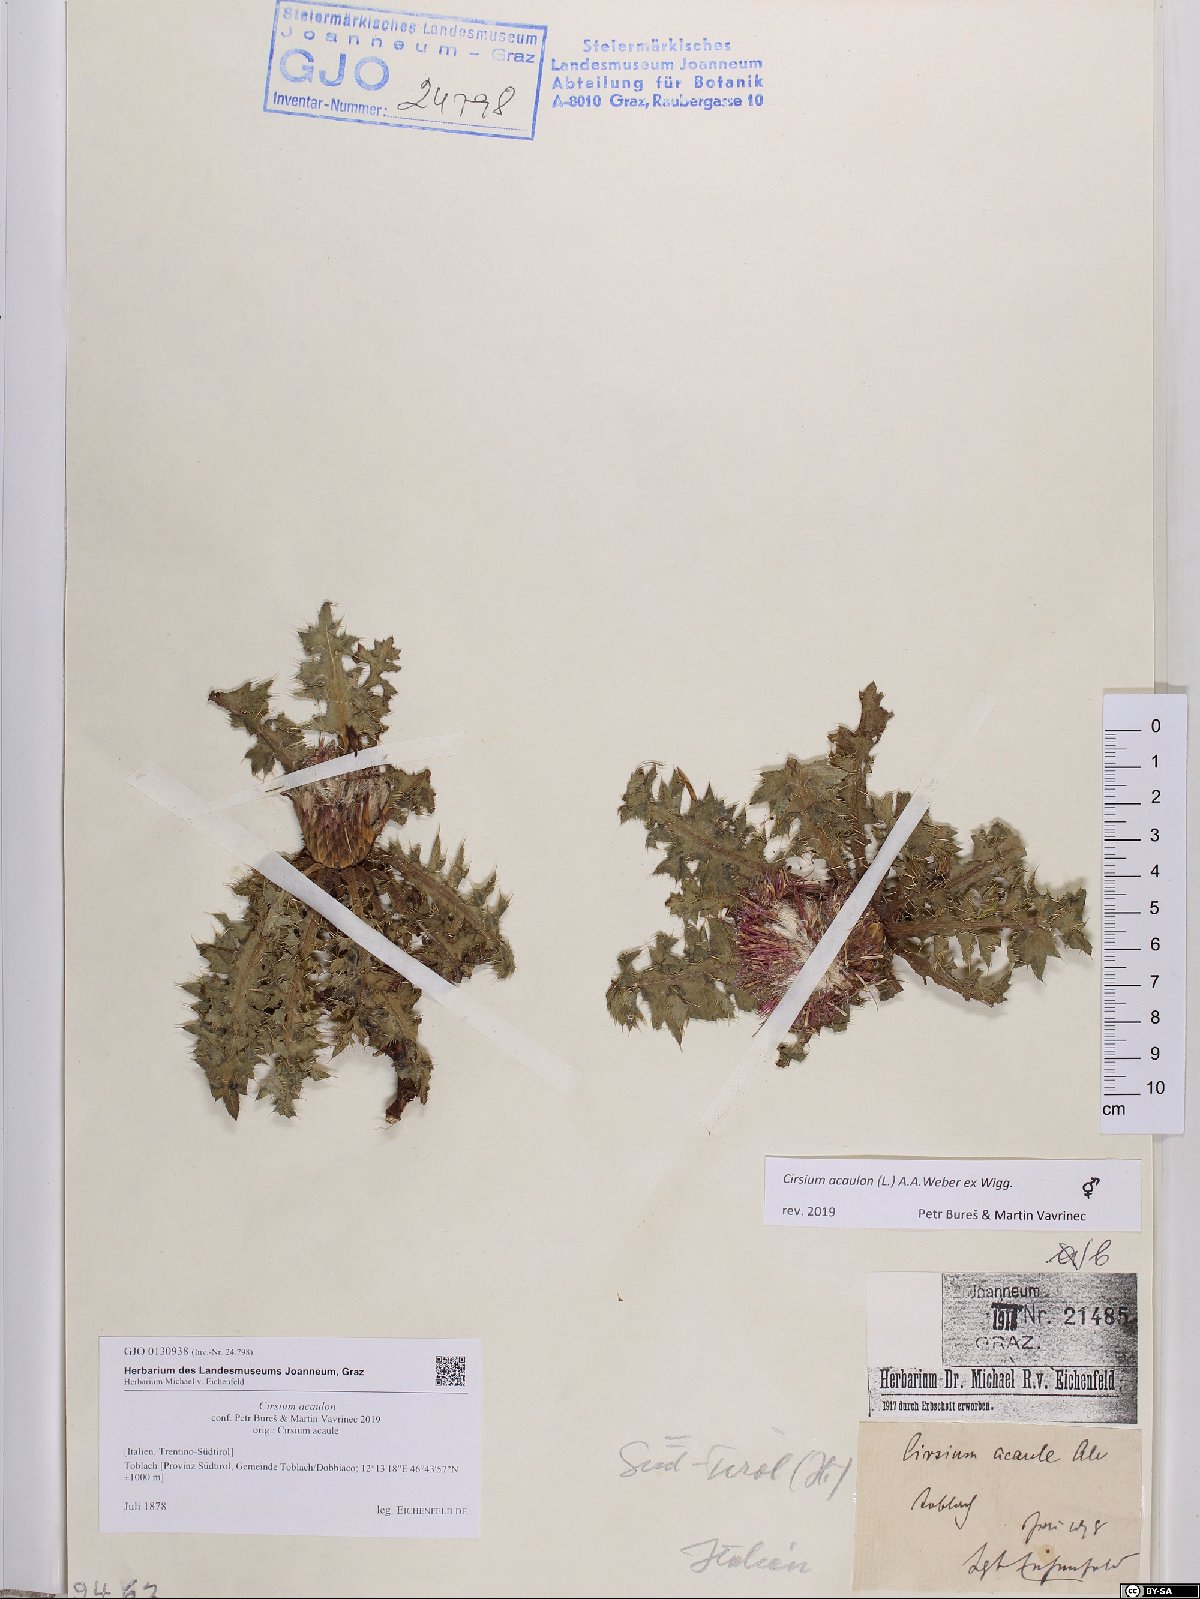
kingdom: Plantae
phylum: Tracheophyta
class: Magnoliopsida
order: Asterales
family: Asteraceae
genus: Cirsium
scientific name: Cirsium acaulon
